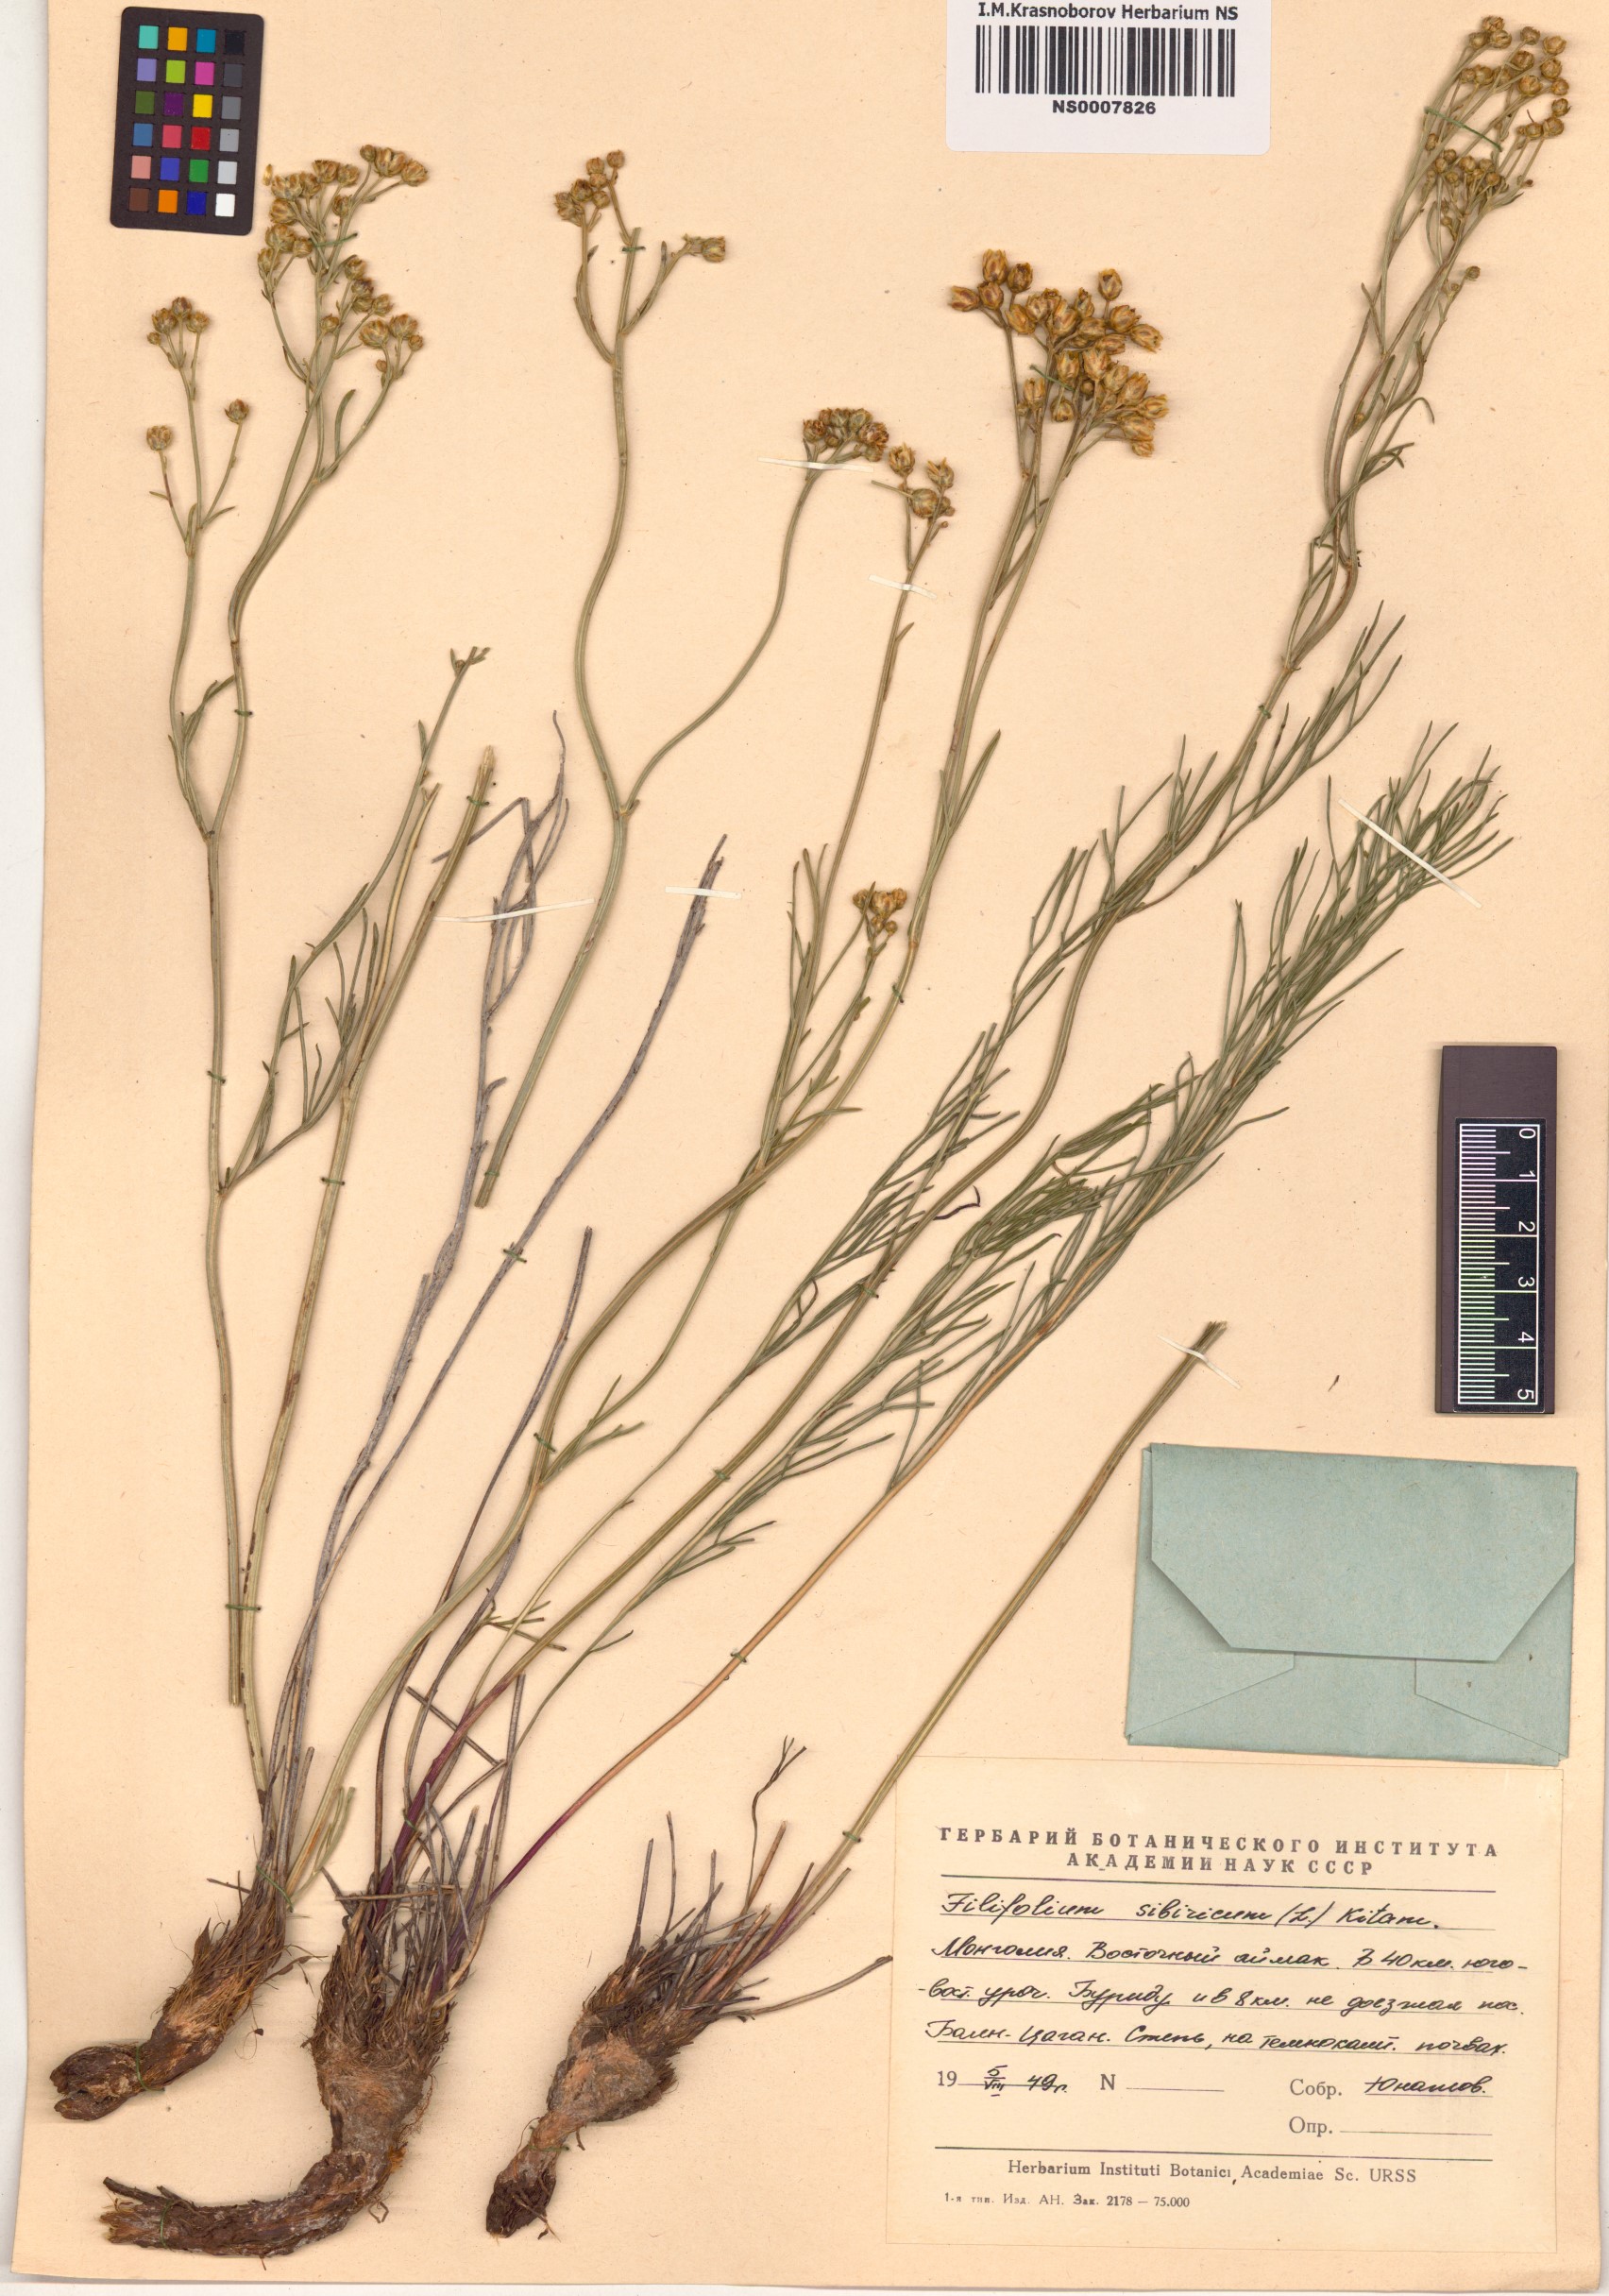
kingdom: Plantae
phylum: Tracheophyta
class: Magnoliopsida
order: Asterales
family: Asteraceae
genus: Filifolium
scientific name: Filifolium sibiricum
